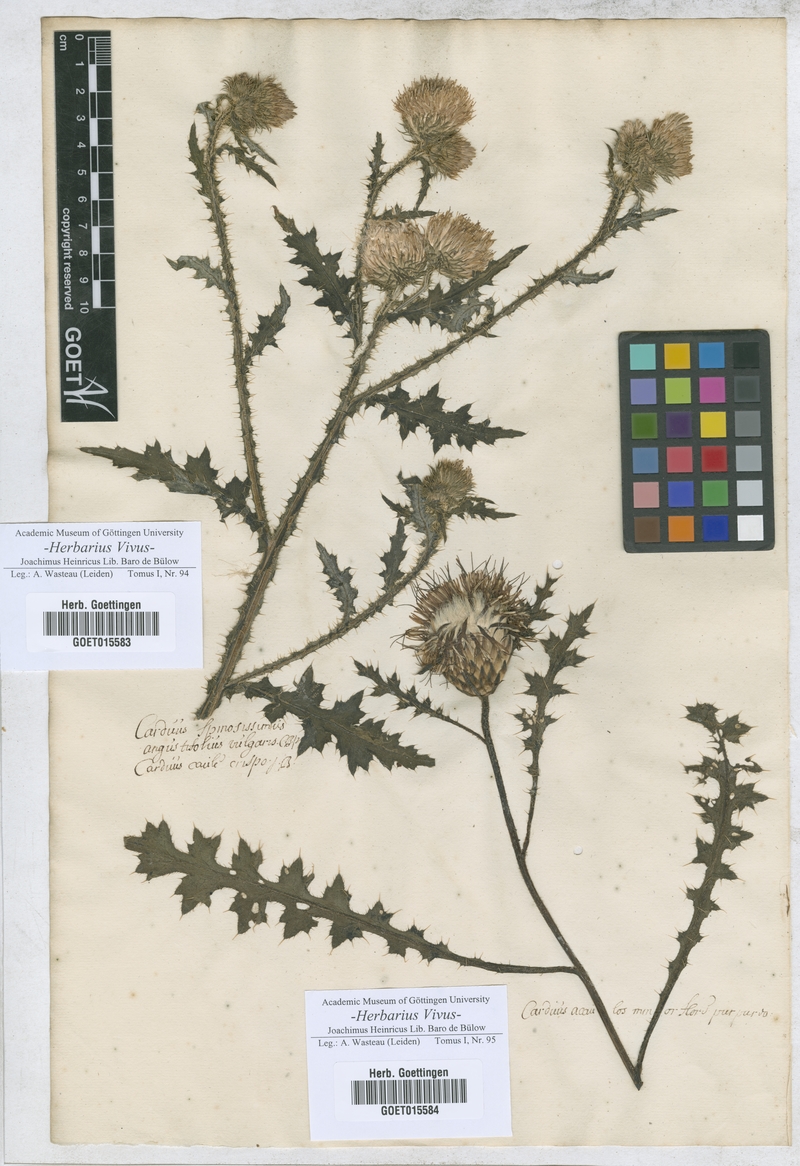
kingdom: Plantae
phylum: Tracheophyta
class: Magnoliopsida
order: Asterales
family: Asteraceae
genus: Carduus
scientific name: Carduus crispus
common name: Welted thistle
